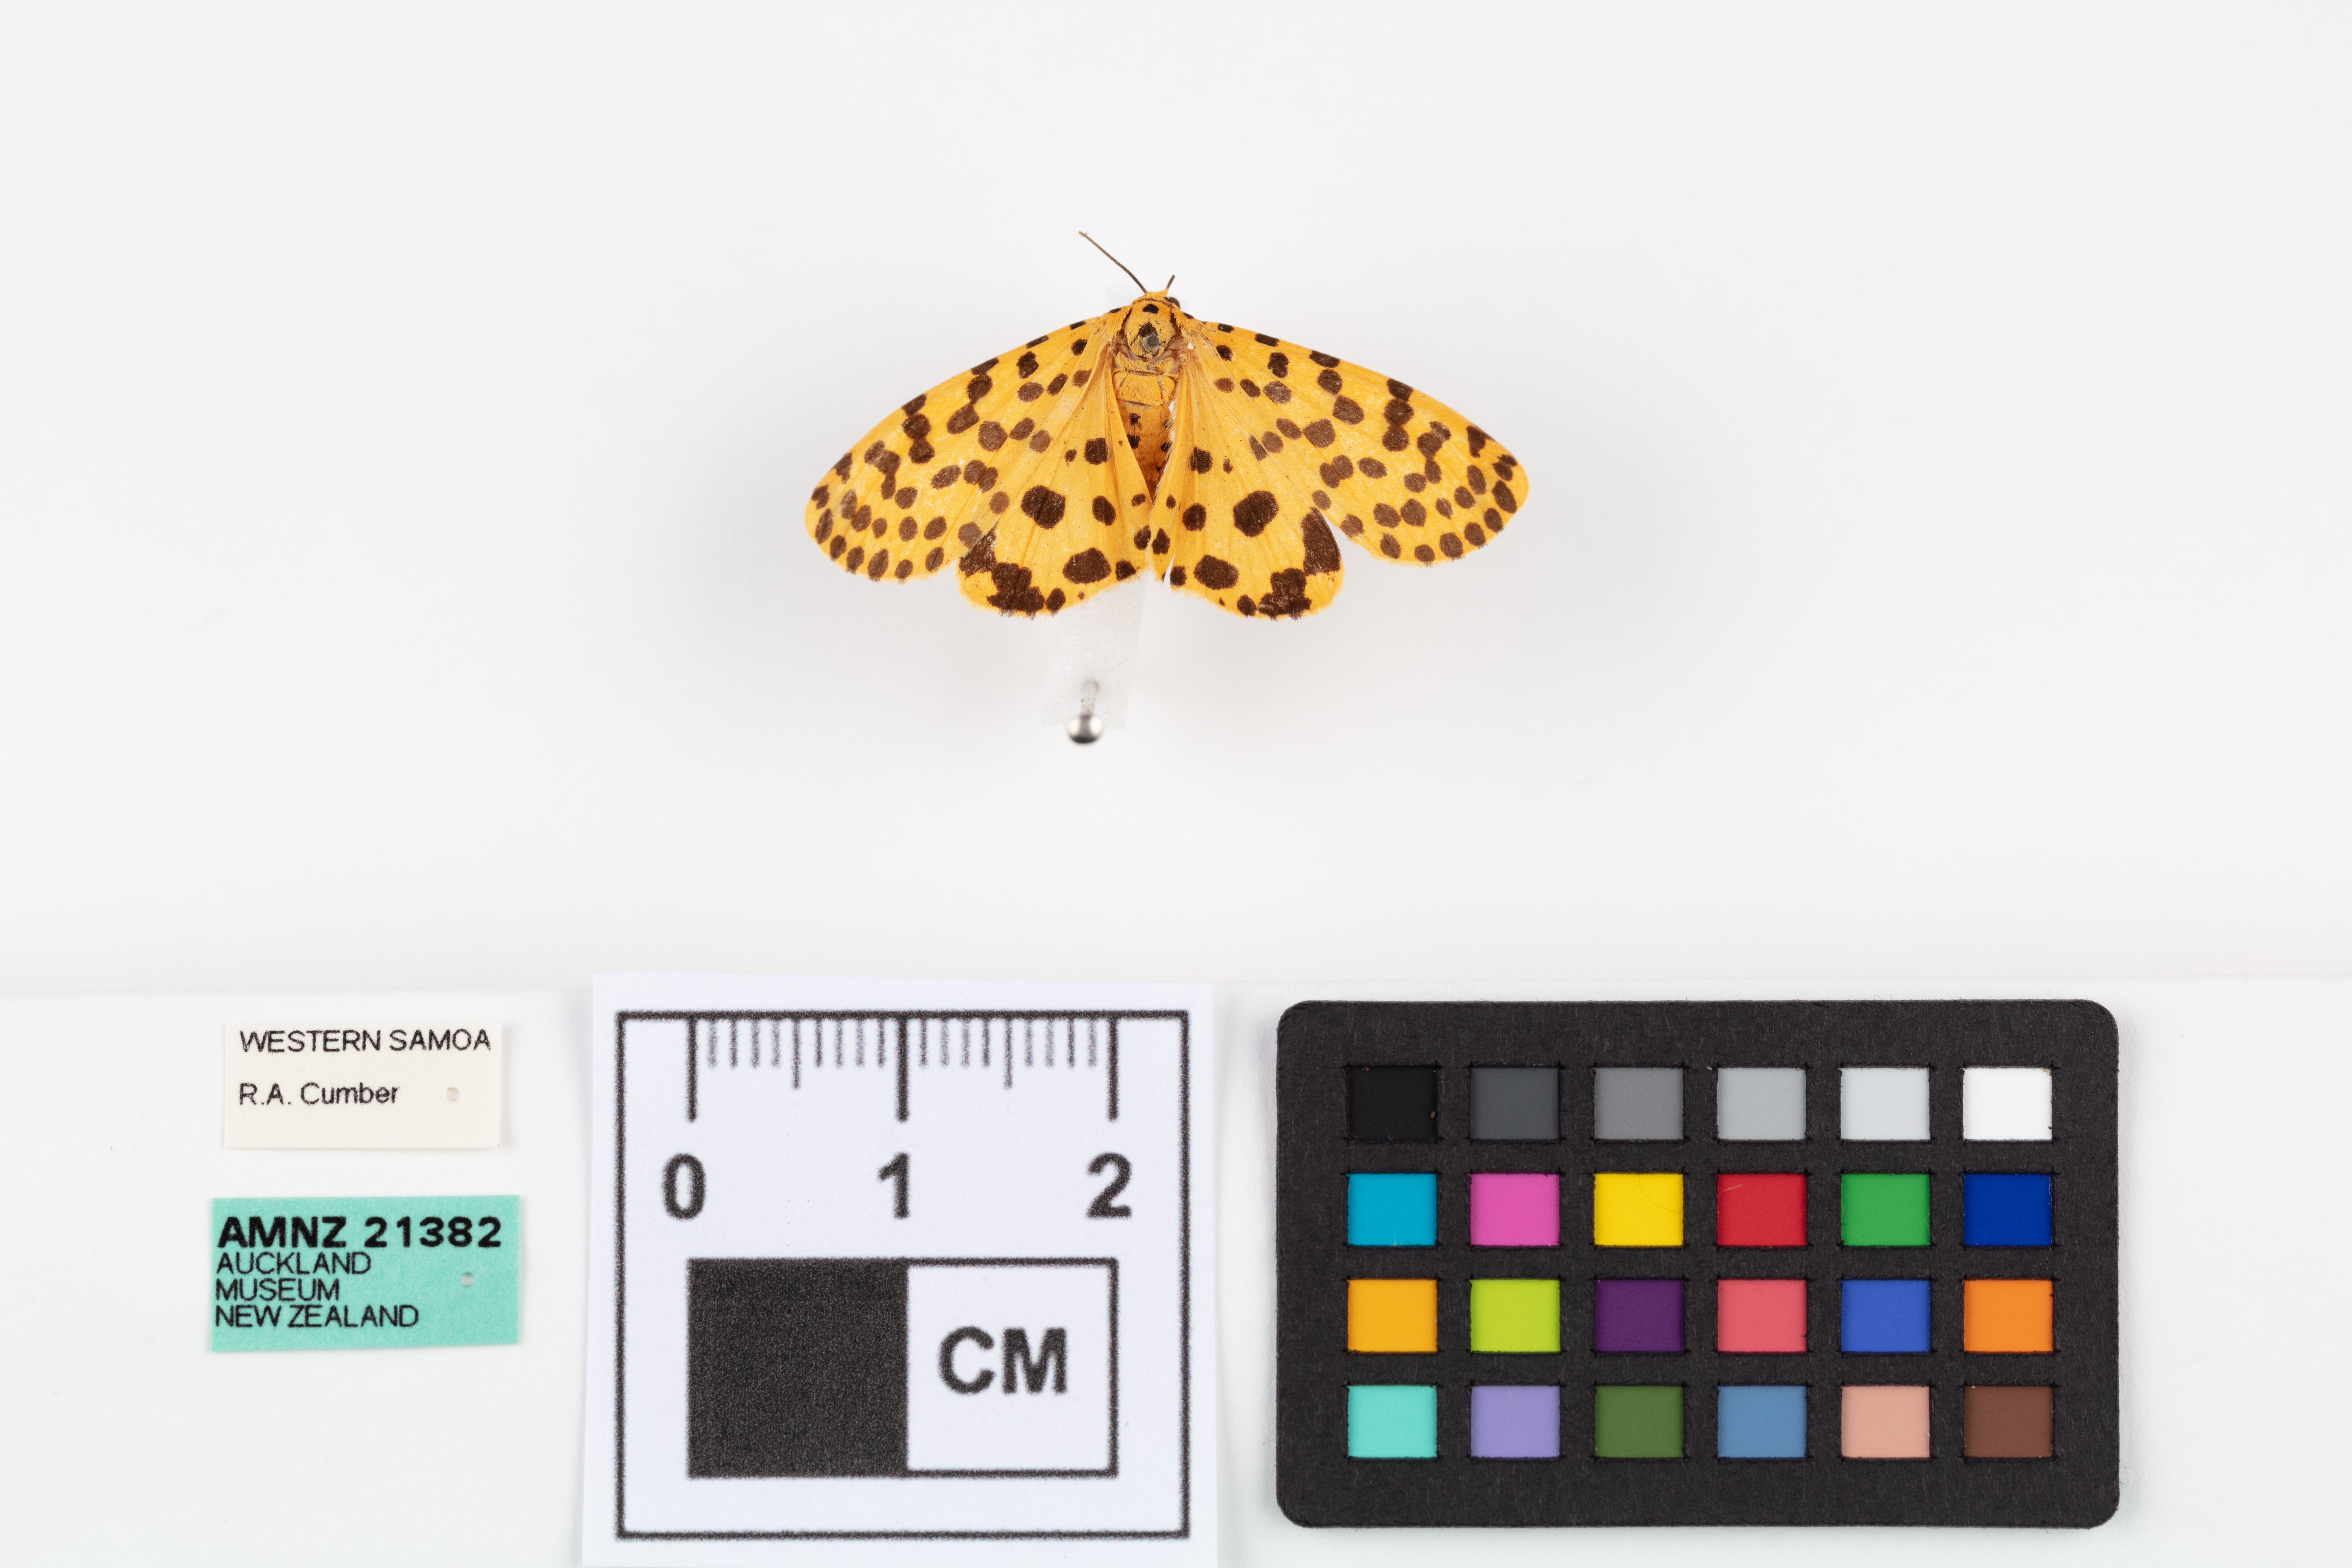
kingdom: Animalia
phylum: Arthropoda
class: Insecta
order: Lepidoptera
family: Erebidae
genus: Argina
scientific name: Argina astrea
